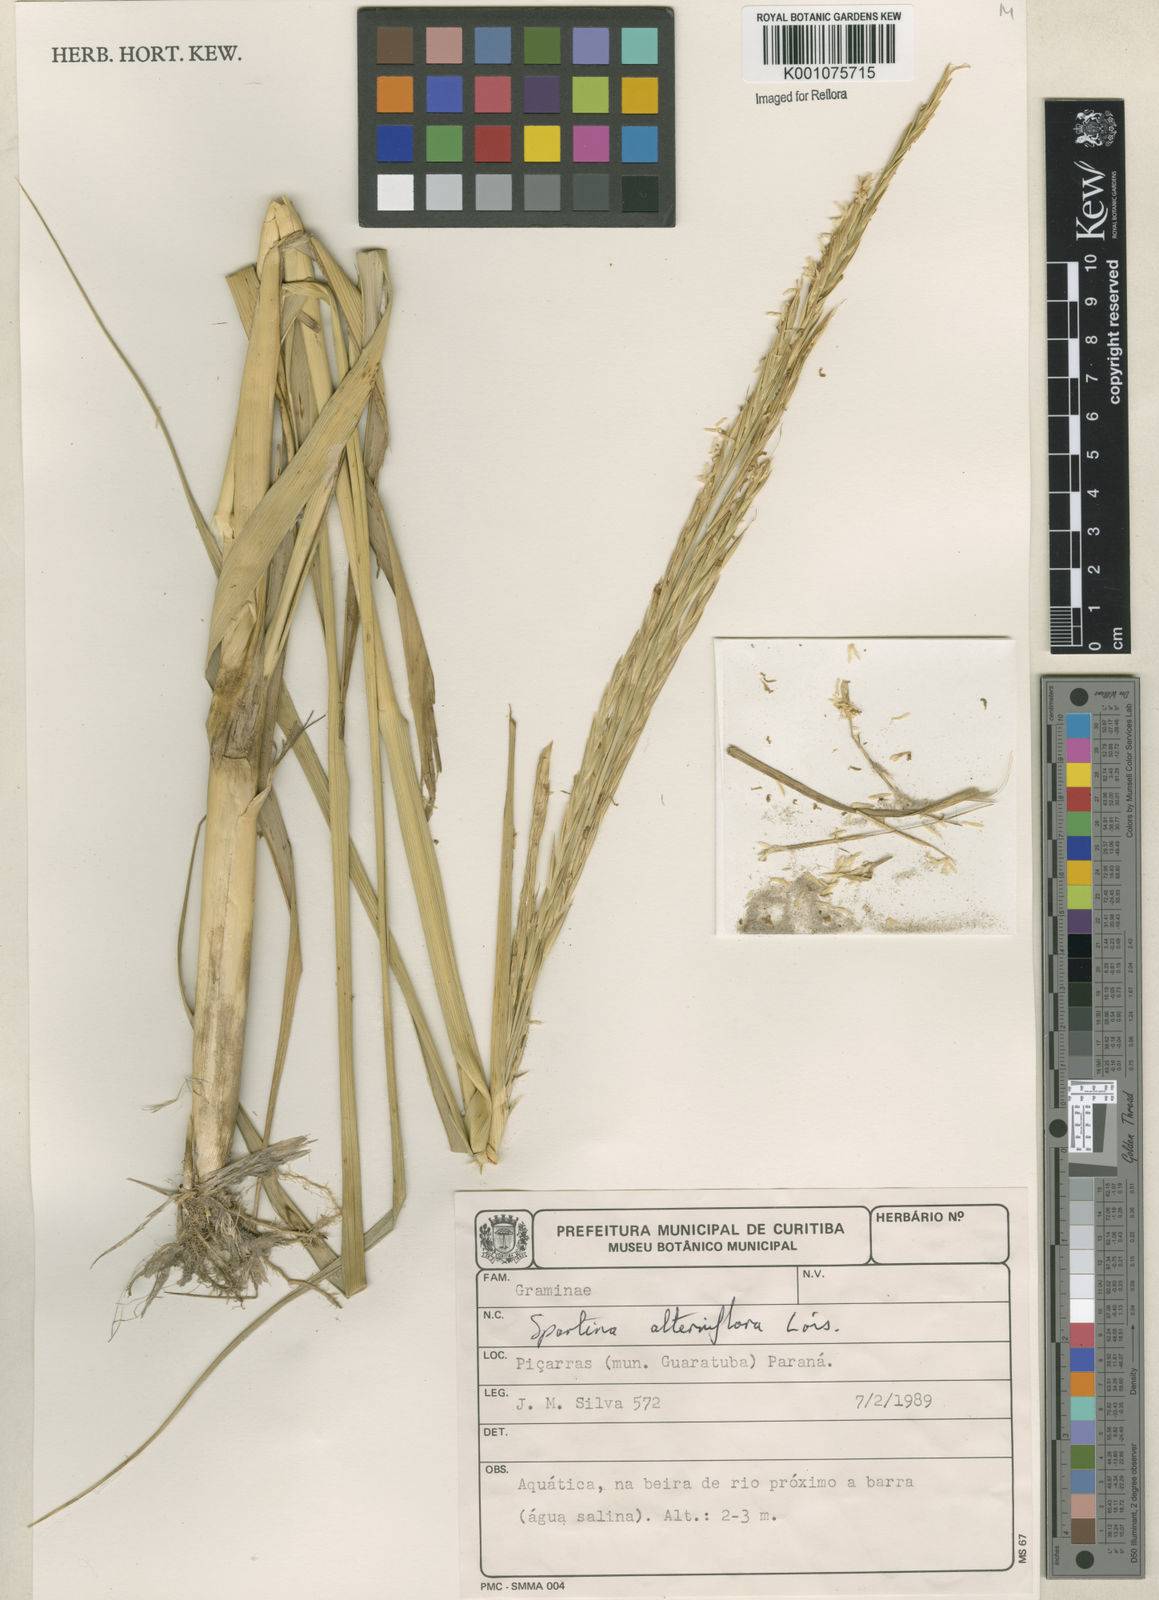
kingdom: Animalia
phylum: Mollusca
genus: Spartina
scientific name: Spartina
